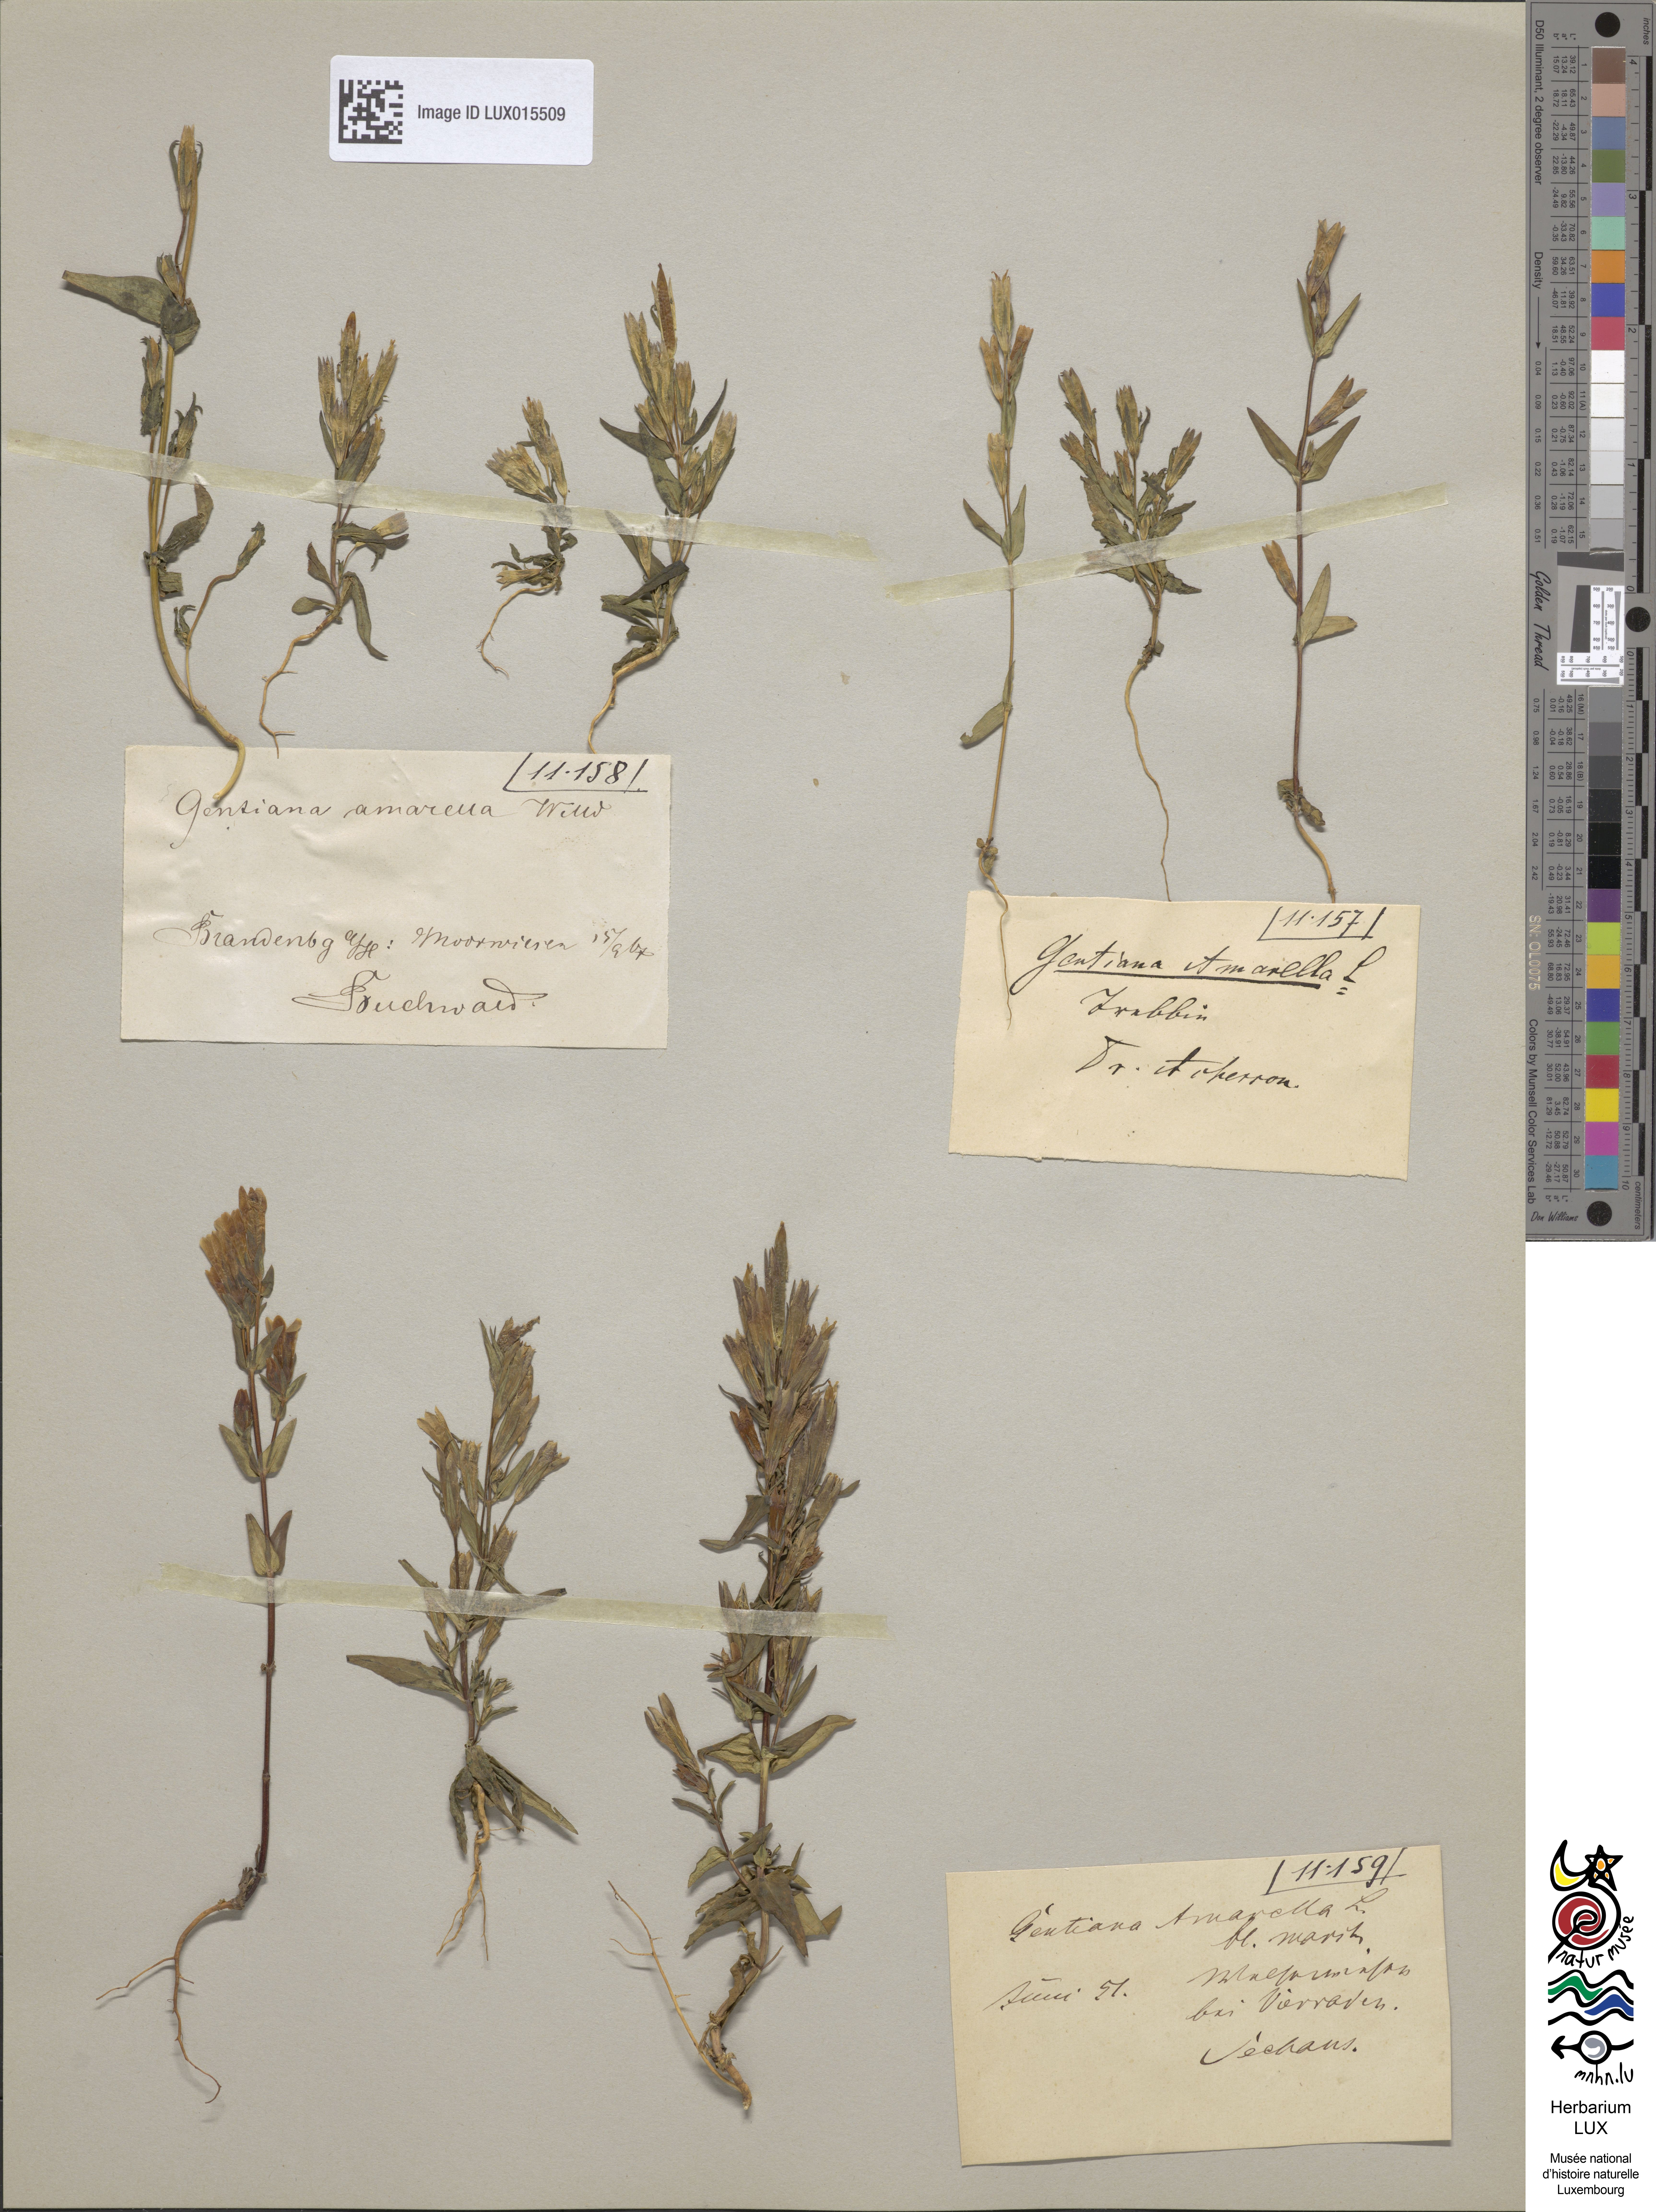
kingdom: Plantae
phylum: Tracheophyta
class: Magnoliopsida
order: Gentianales
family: Gentianaceae
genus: Gentianella
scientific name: Gentianella amarella
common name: Autumn gentian
